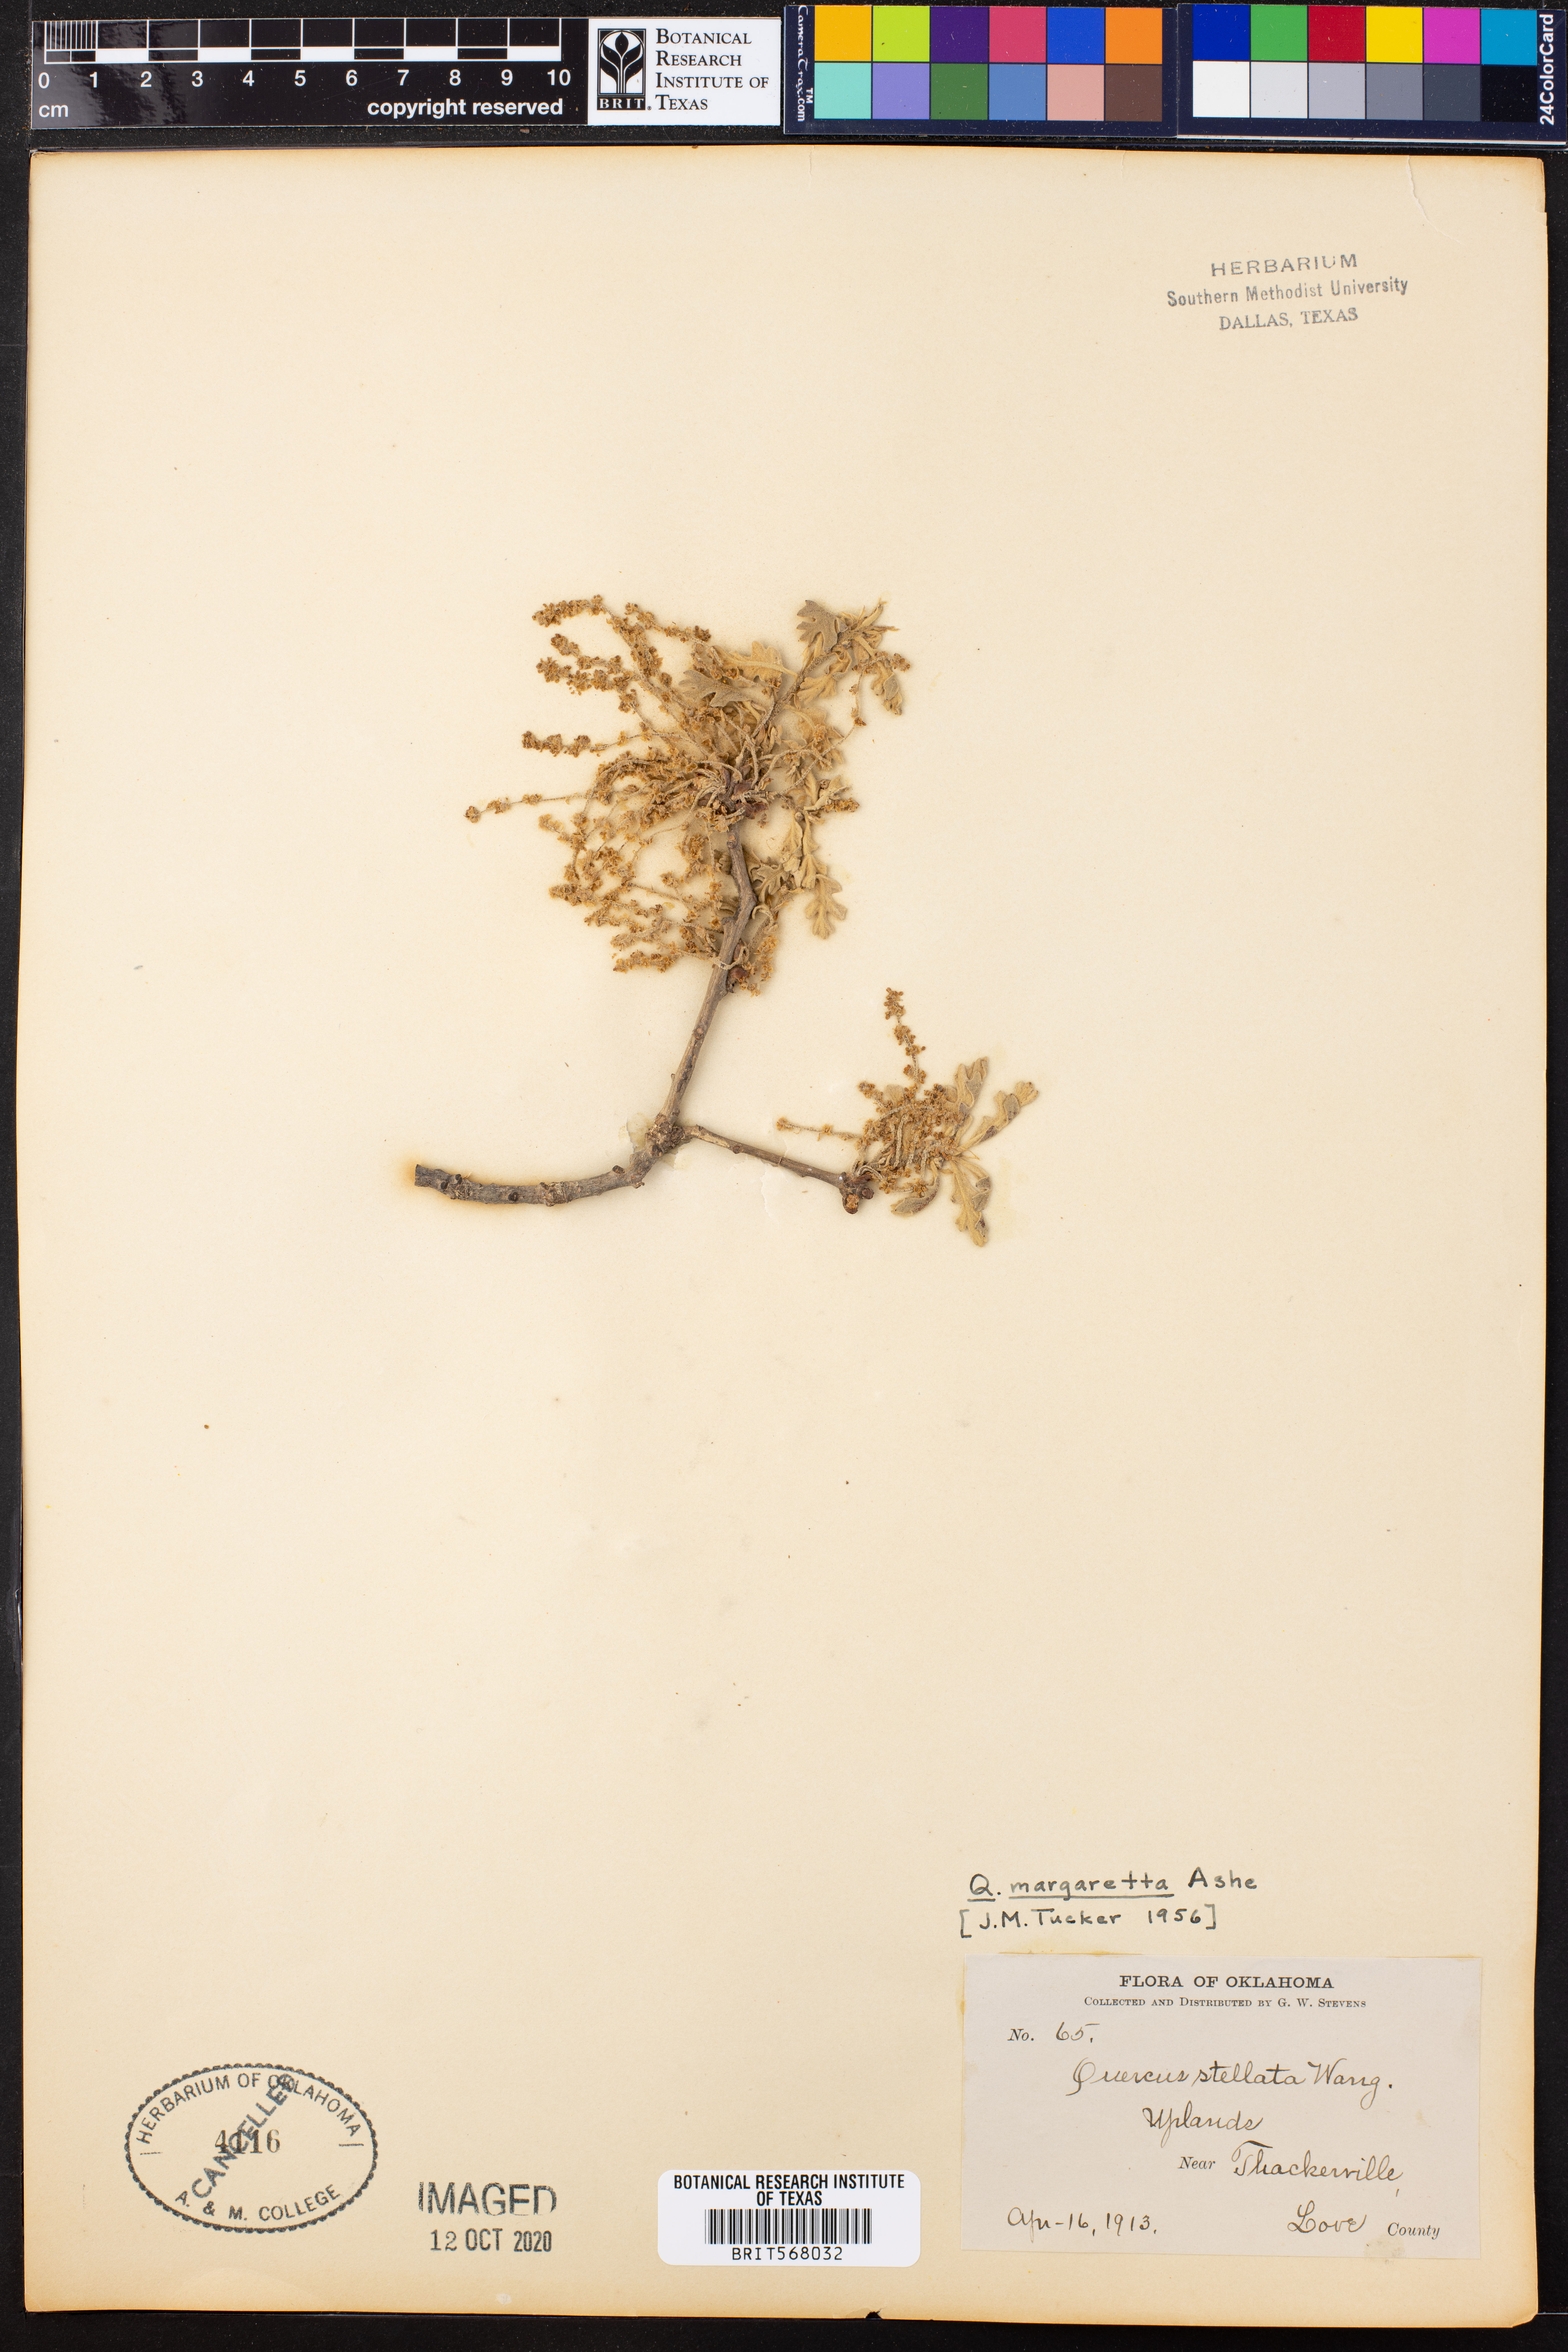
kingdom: Plantae
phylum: Tracheophyta
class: Magnoliopsida
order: Fagales
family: Fagaceae
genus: Quercus
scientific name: Quercus margaretta
